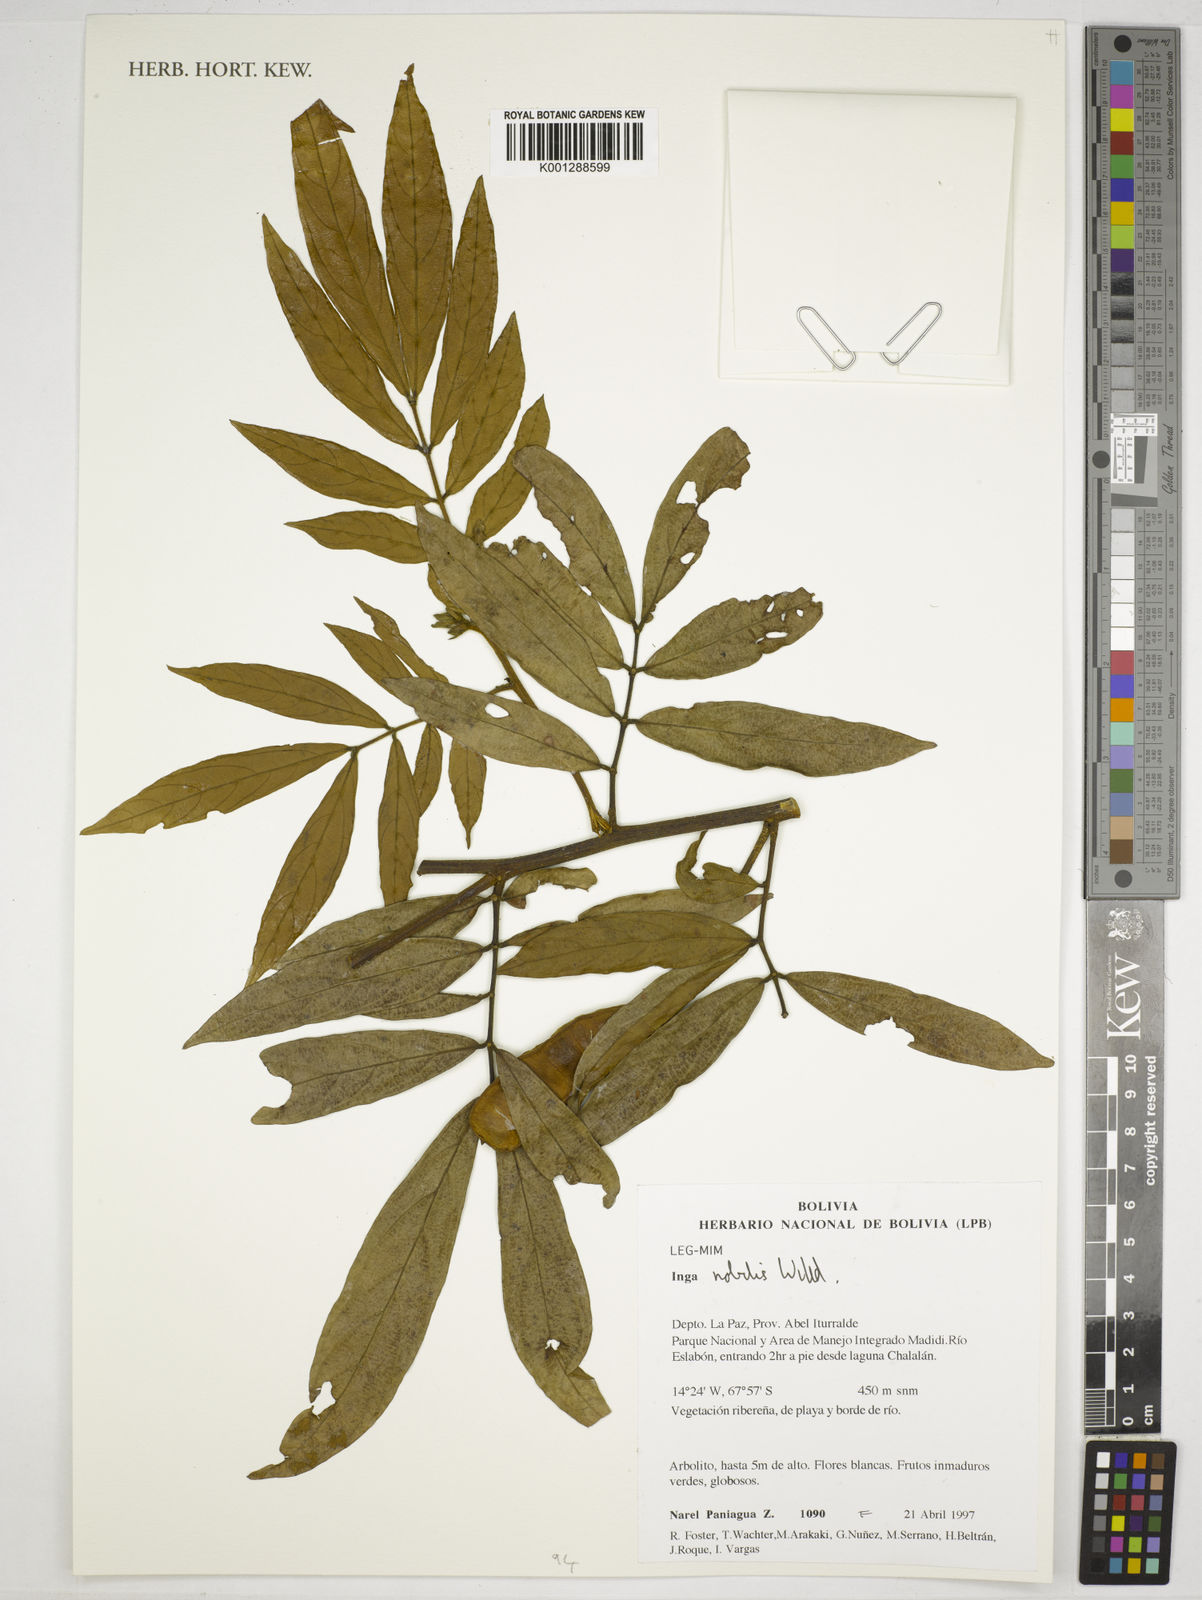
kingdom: Plantae
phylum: Tracheophyta
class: Magnoliopsida
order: Fabales
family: Fabaceae
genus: Inga
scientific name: Inga nobilis
